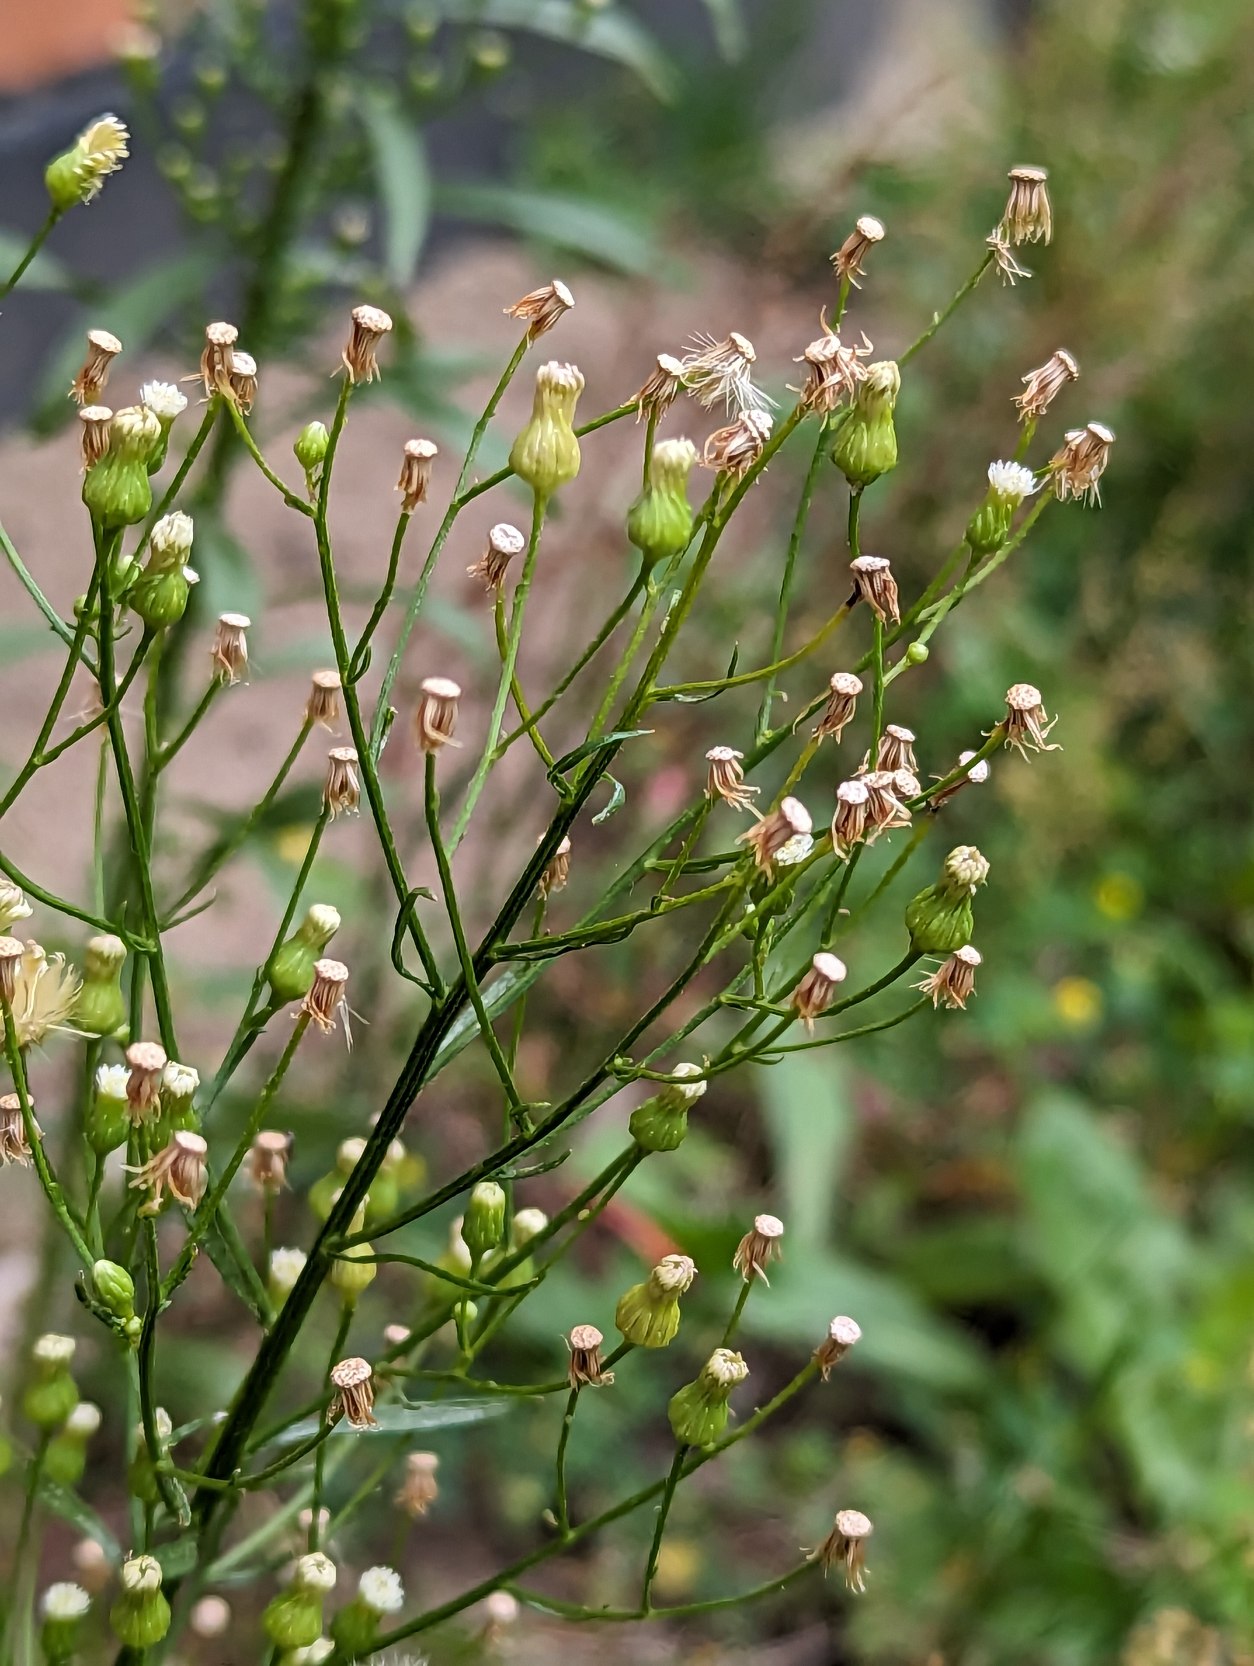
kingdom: Plantae
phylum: Tracheophyta
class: Magnoliopsida
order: Asterales
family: Asteraceae
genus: Erigeron
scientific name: Erigeron canadensis
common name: Kanadisk bakkestjerne
